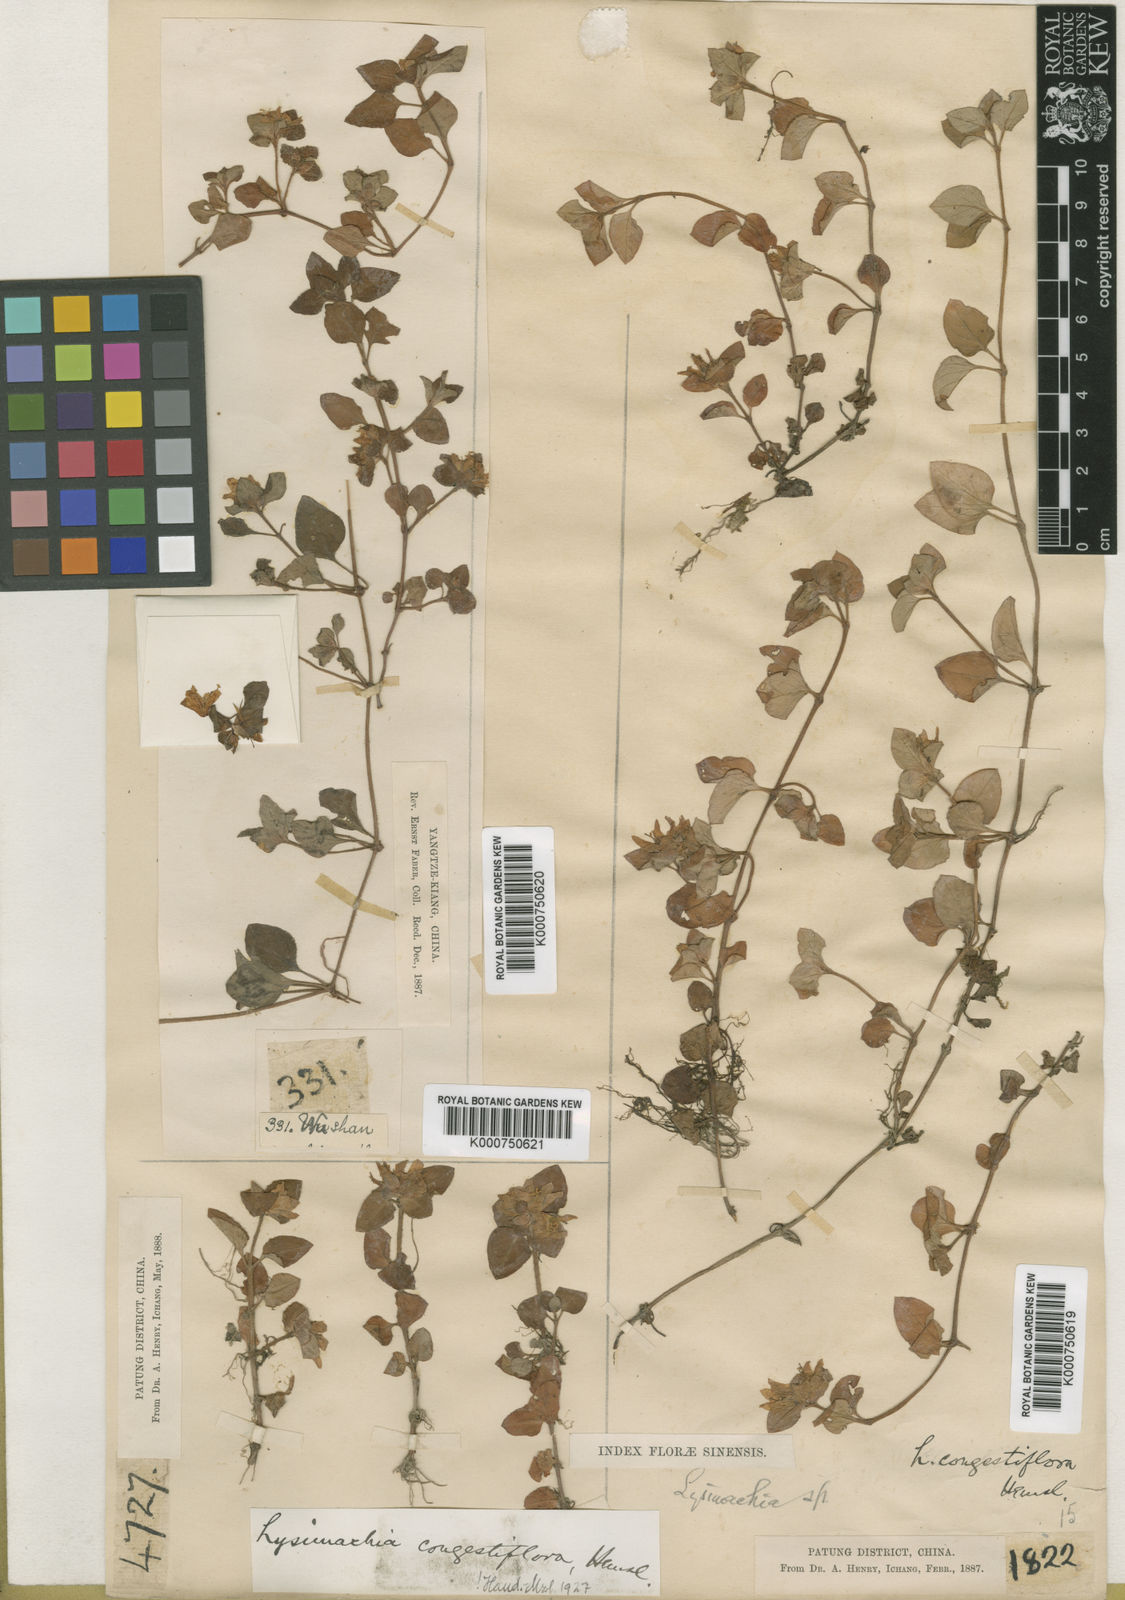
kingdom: Plantae
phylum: Tracheophyta
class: Magnoliopsida
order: Ericales
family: Primulaceae
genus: Lysimachia
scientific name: Lysimachia congestiflora
